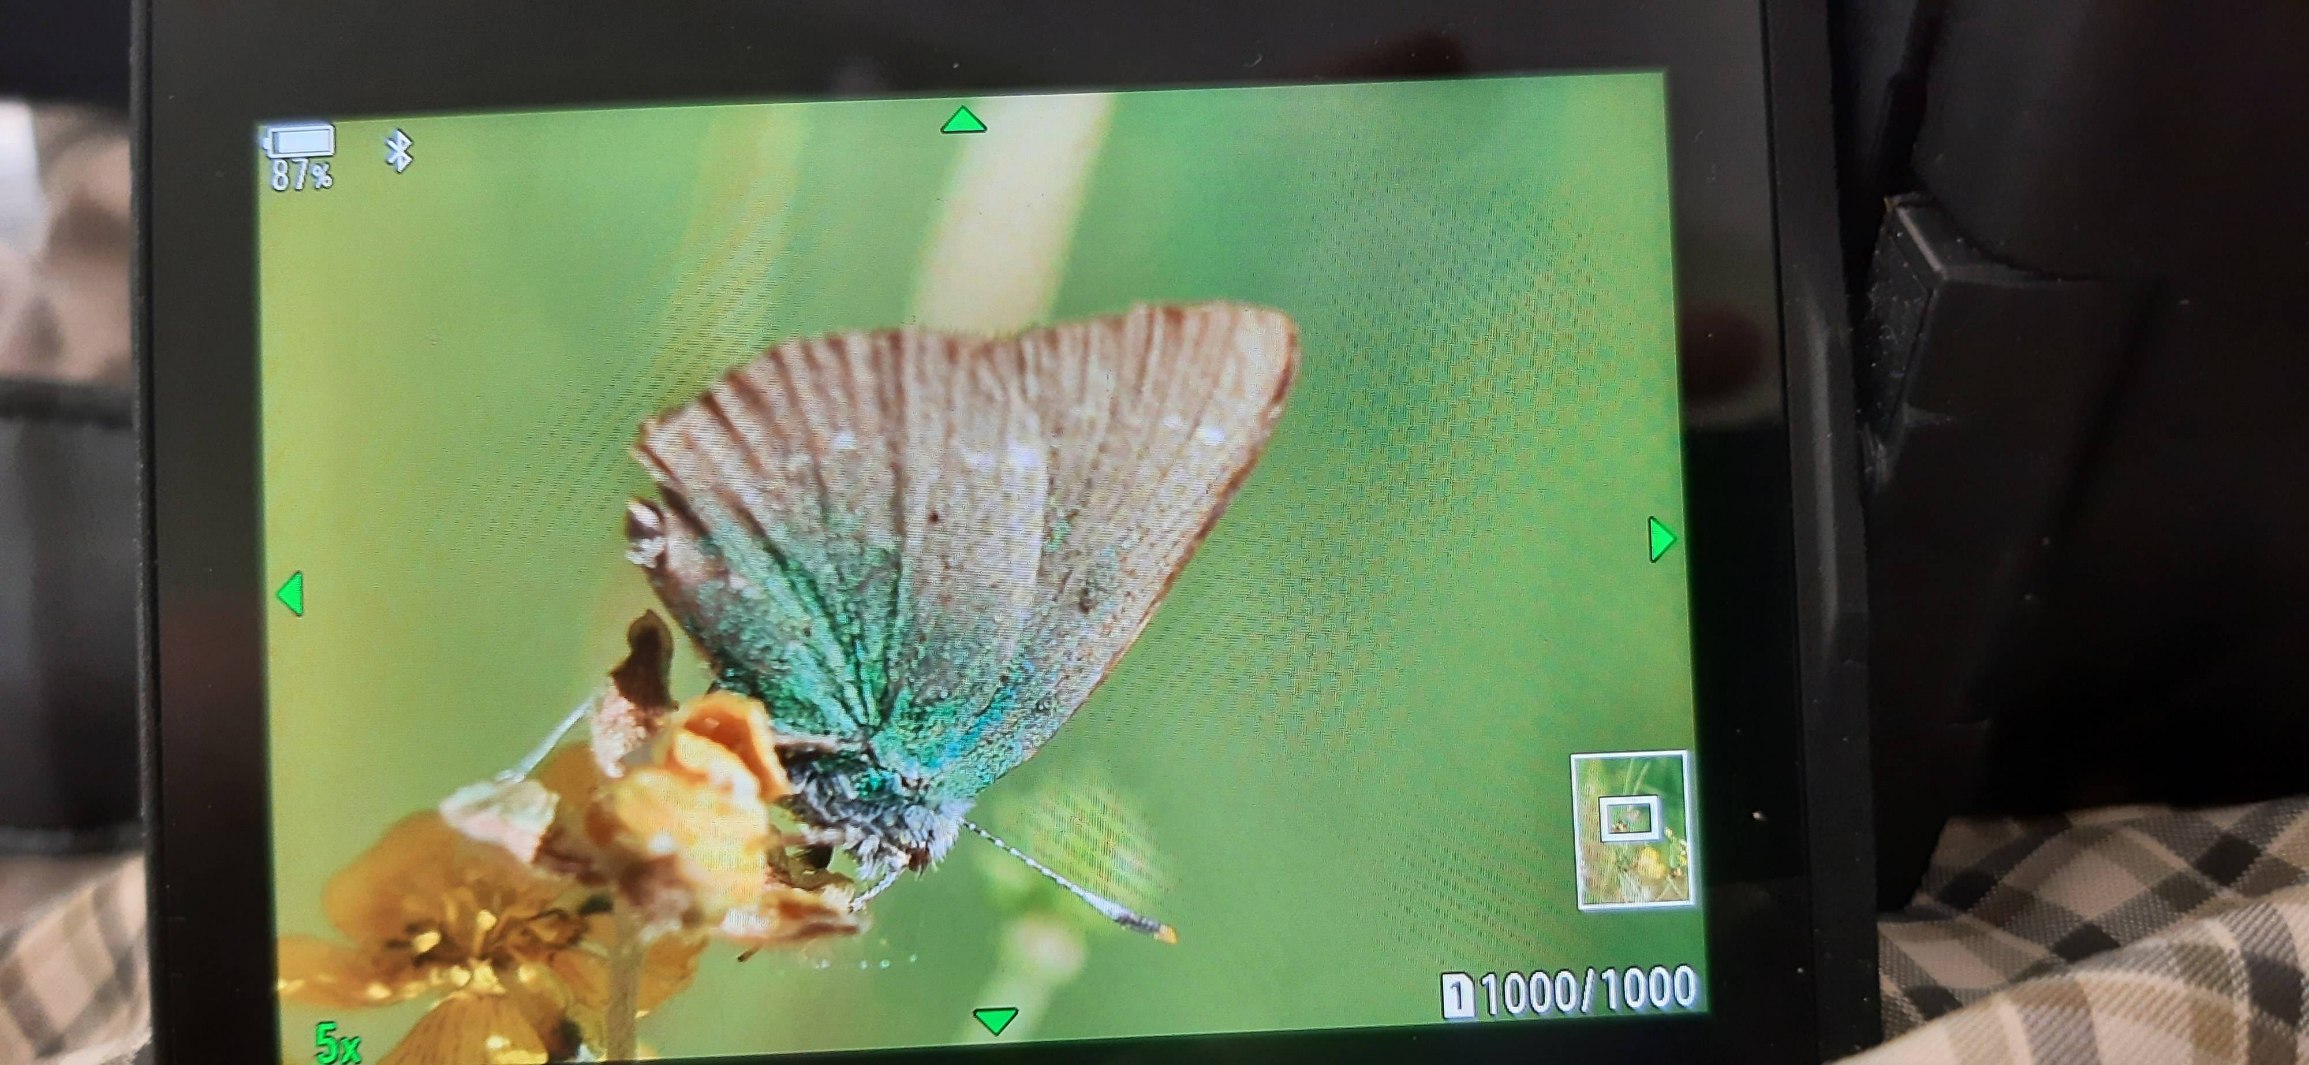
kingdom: Animalia
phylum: Arthropoda
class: Insecta
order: Lepidoptera
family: Lycaenidae
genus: Callophrys
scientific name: Callophrys rubi
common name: Grøn busksommerfugl
